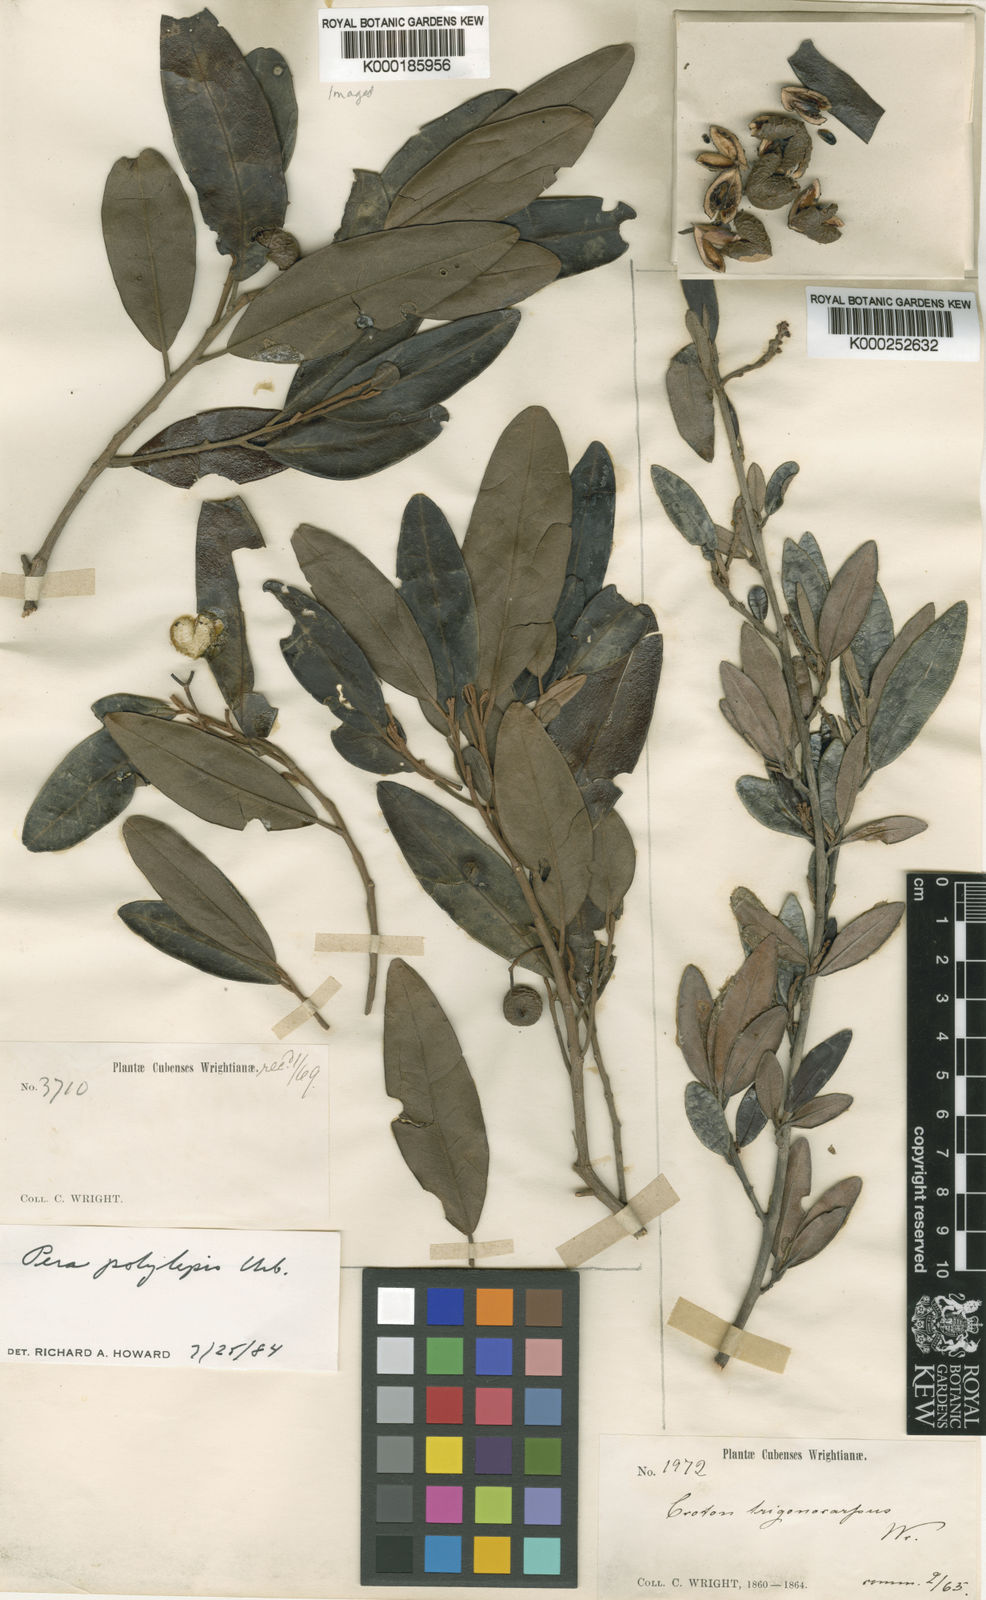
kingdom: Plantae
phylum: Tracheophyta
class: Magnoliopsida
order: Malpighiales
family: Euphorbiaceae
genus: Croton
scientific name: Croton trigonocarpus
